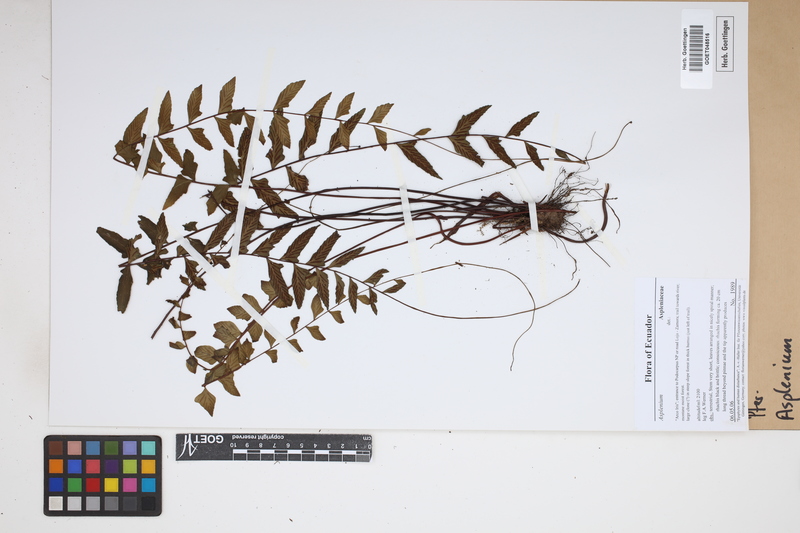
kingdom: Plantae
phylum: Tracheophyta
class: Polypodiopsida
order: Polypodiales
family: Aspleniaceae
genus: Asplenium
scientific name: Asplenium
